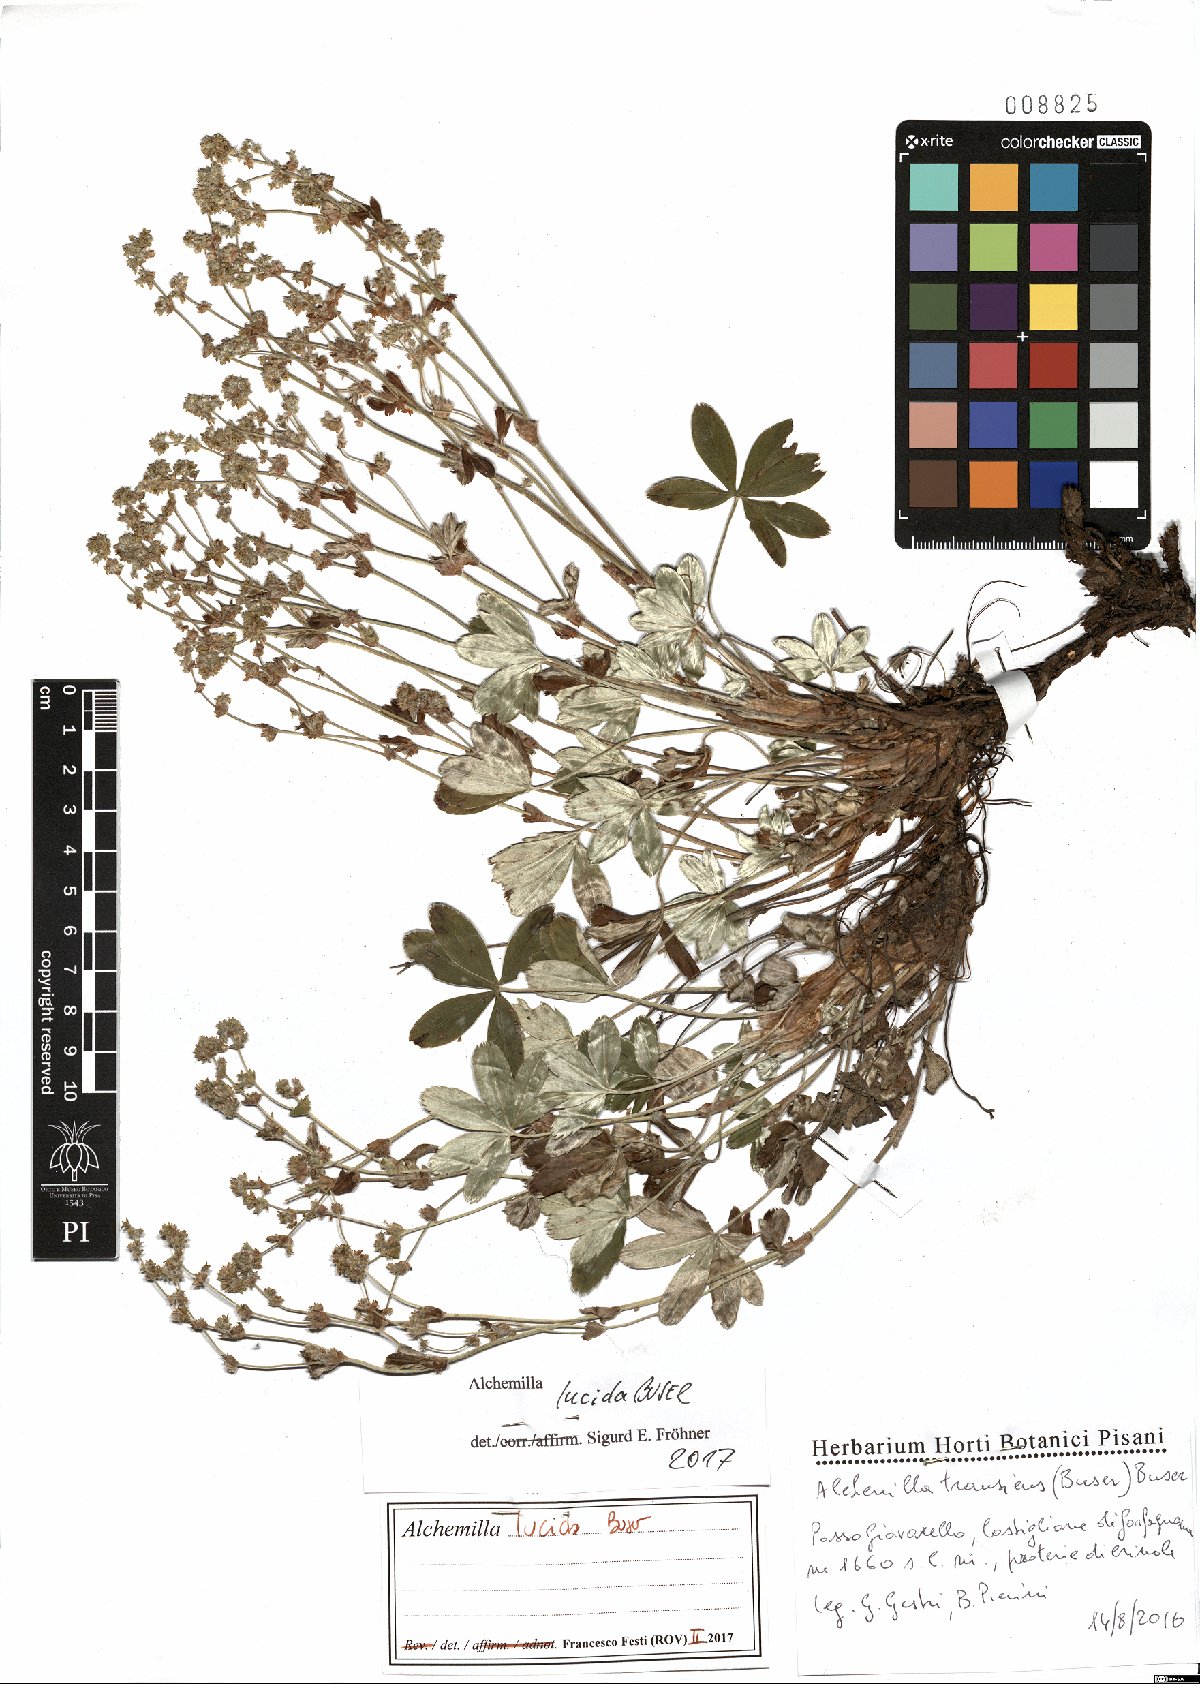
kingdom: Plantae
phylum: Tracheophyta
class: Magnoliopsida
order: Rosales
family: Rosaceae
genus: Alchemilla
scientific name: Alchemilla lucida
